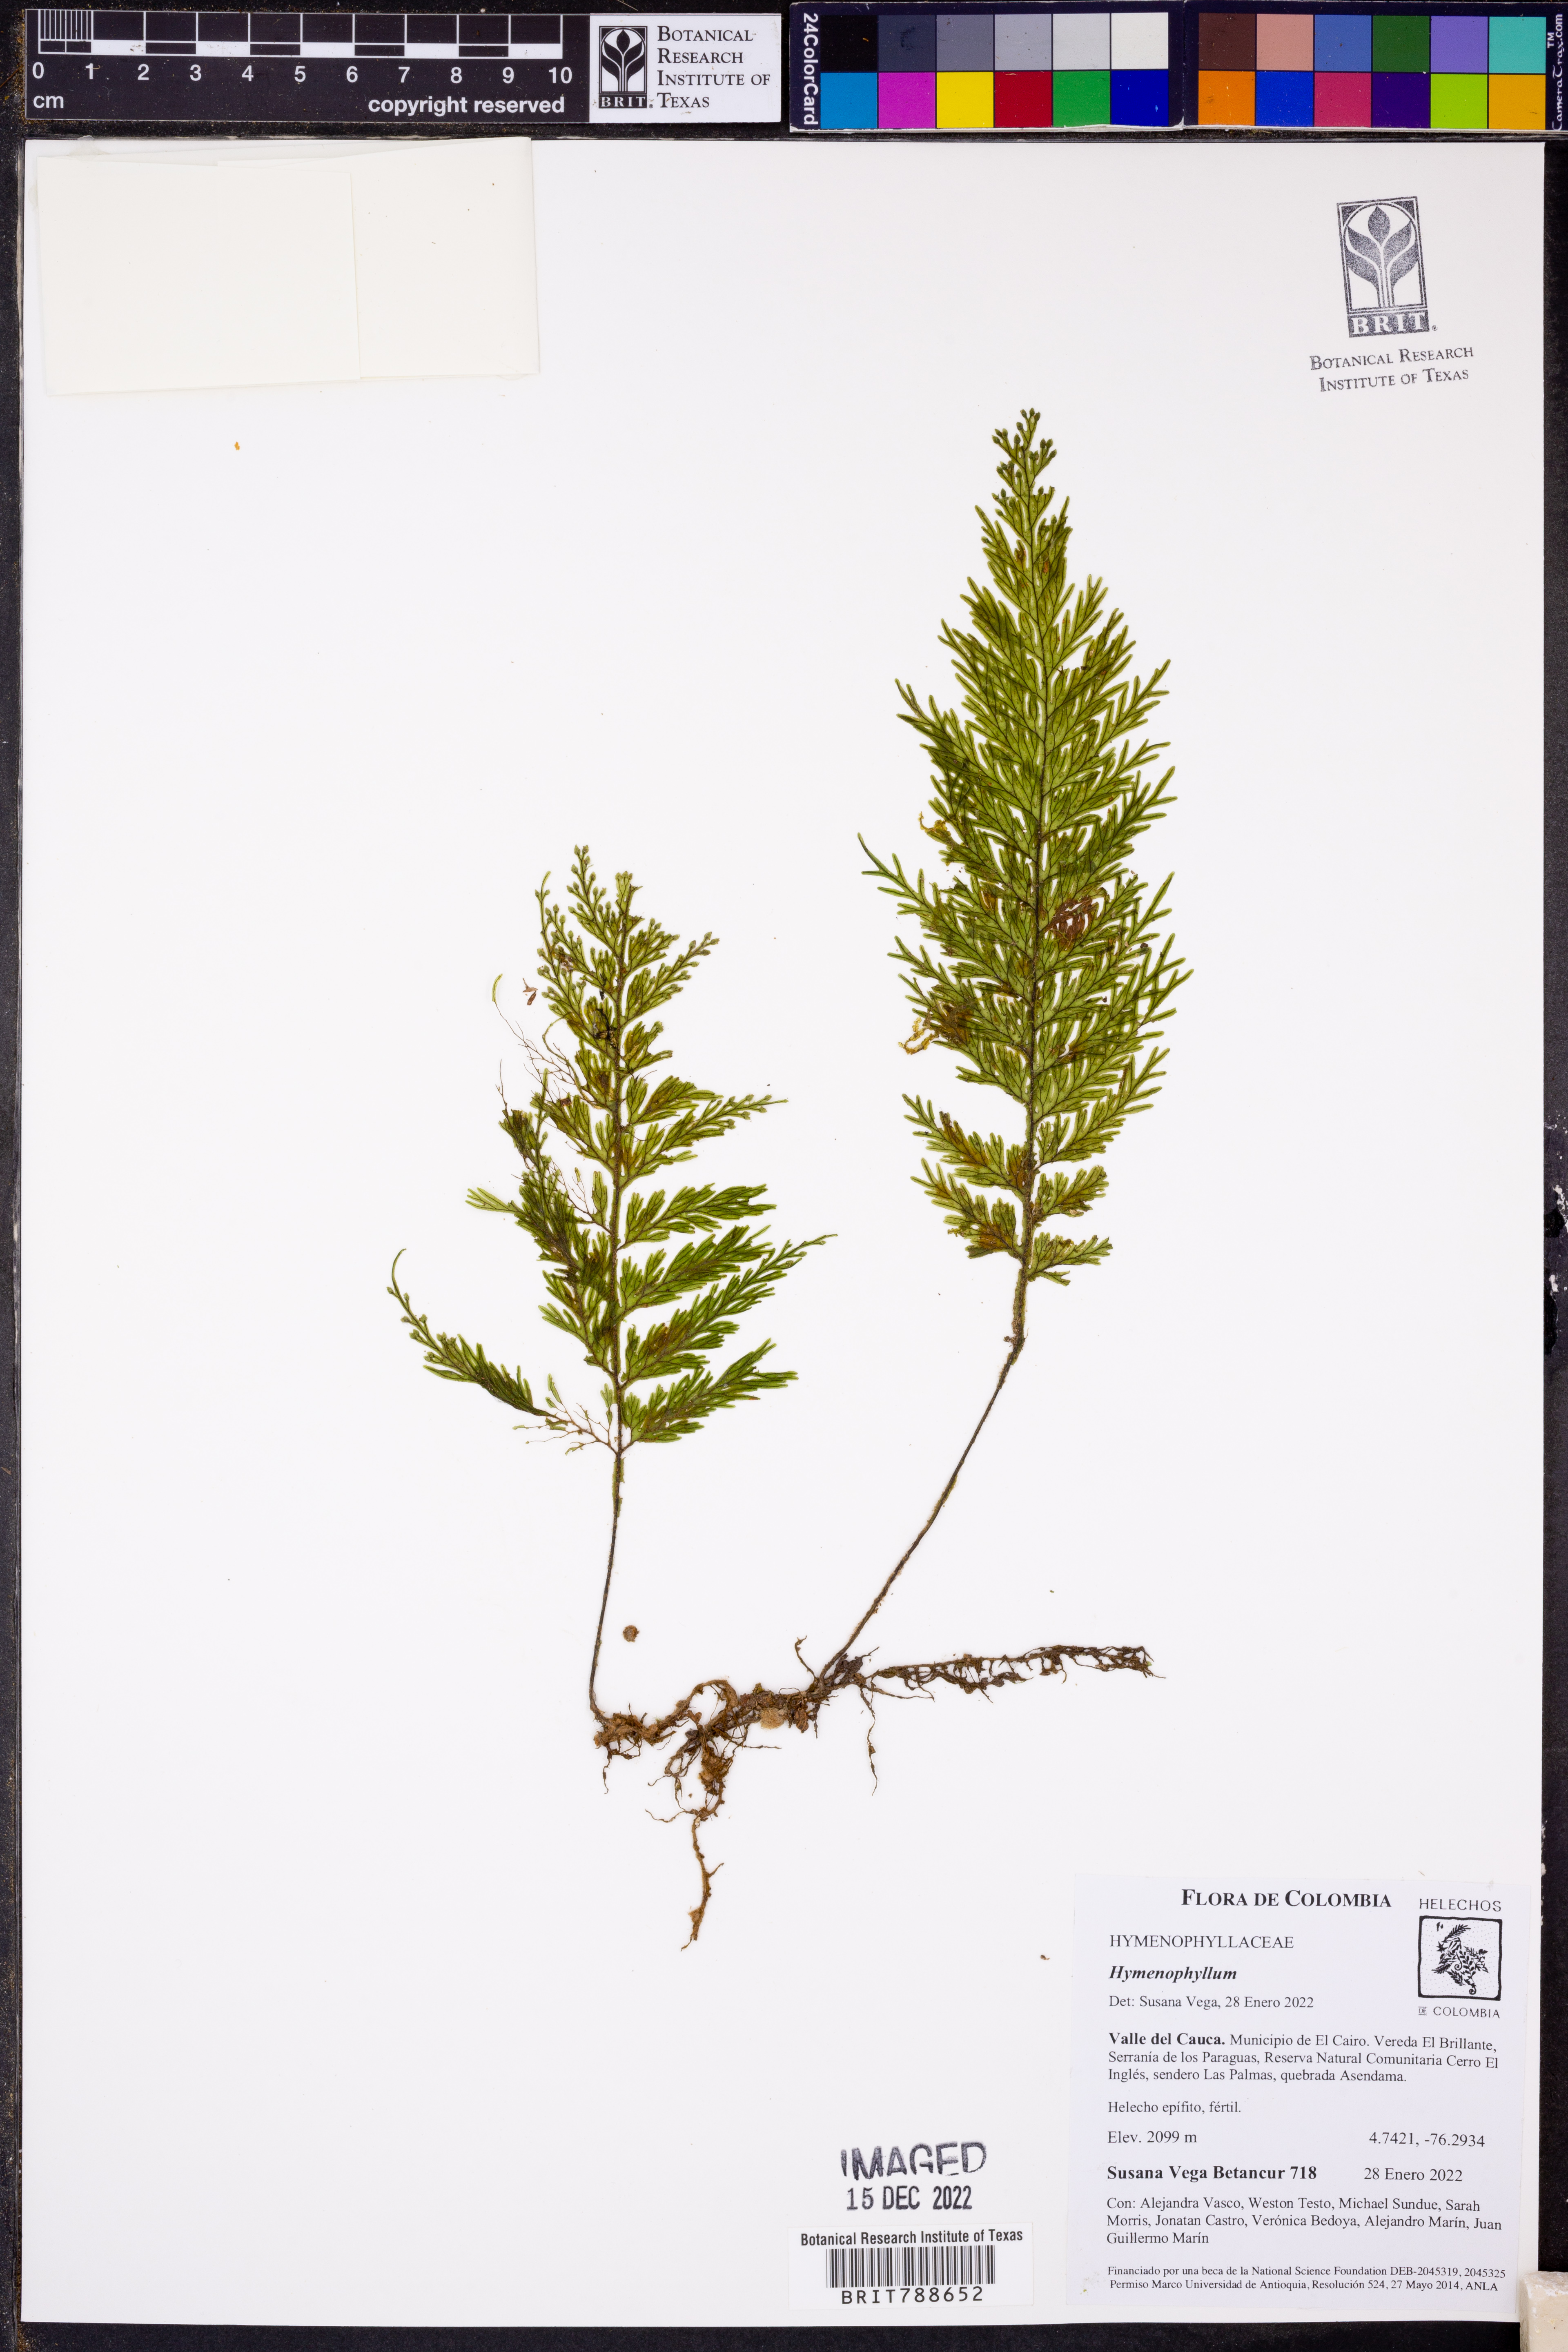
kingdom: Plantae
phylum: Tracheophyta
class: Polypodiopsida
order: Hymenophyllales
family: Hymenophyllaceae
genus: Hymenophyllum
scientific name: Hymenophyllum microcarpum
